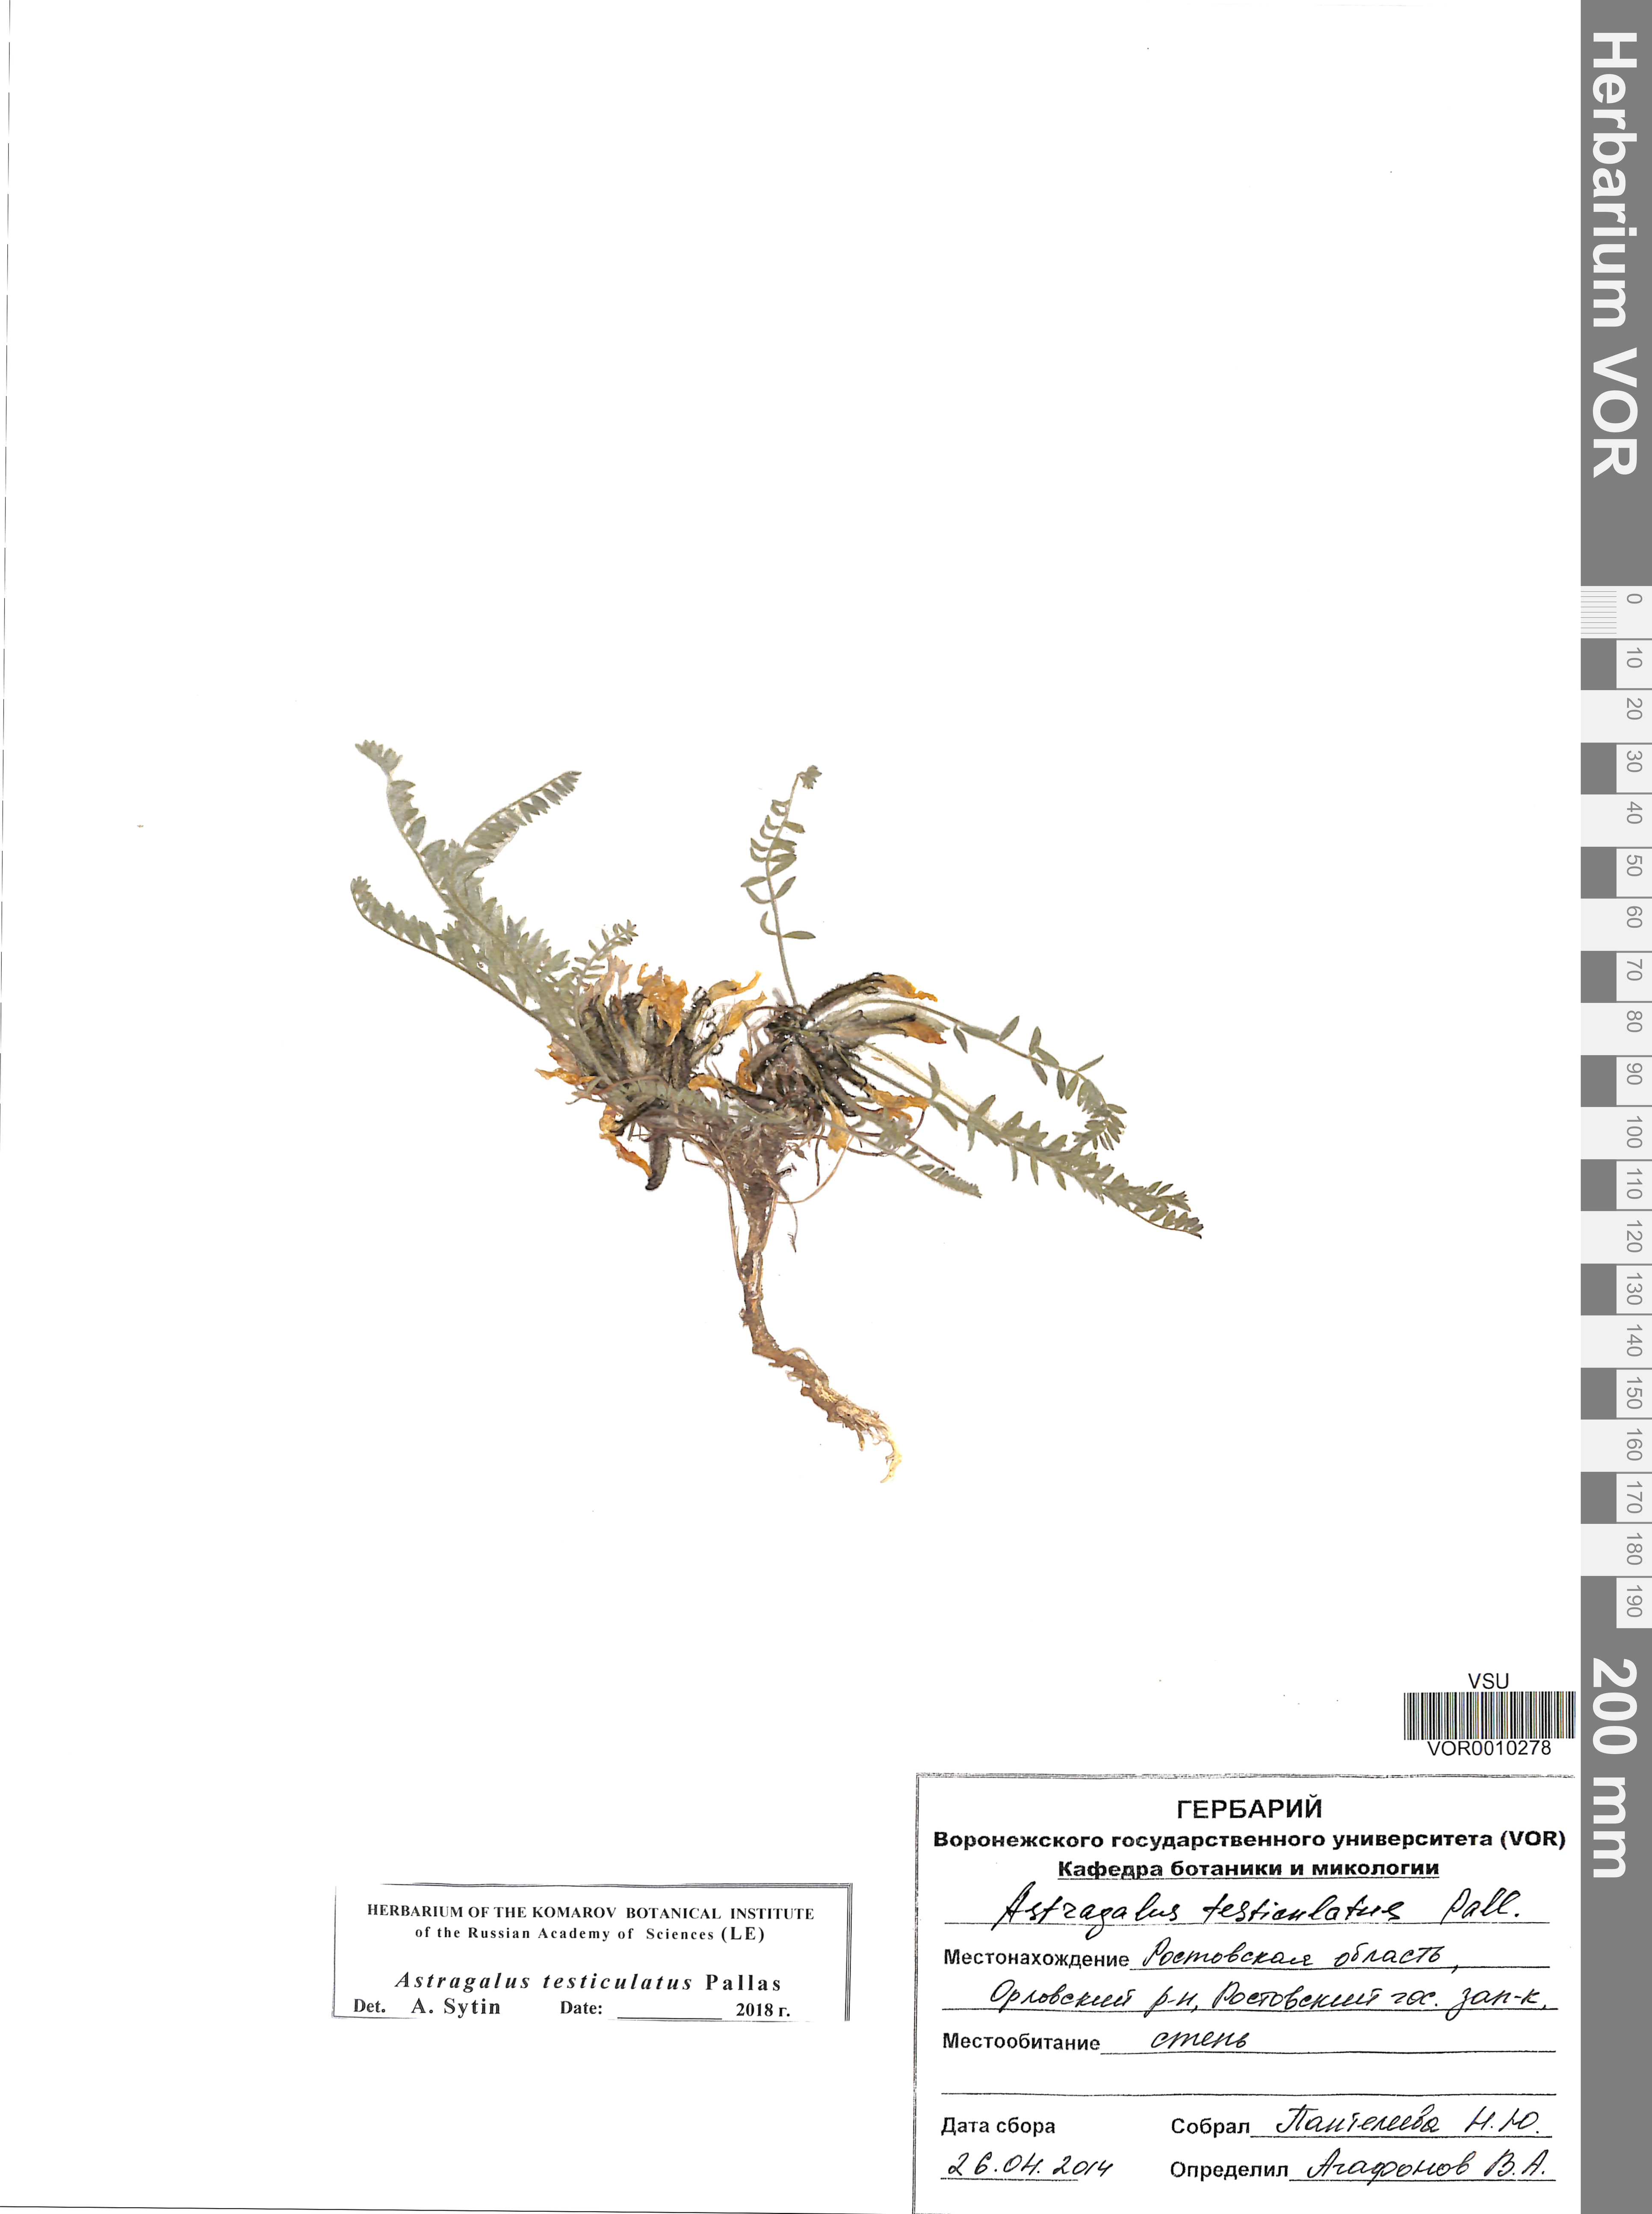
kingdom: Plantae
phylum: Tracheophyta
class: Magnoliopsida
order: Fabales
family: Fabaceae
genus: Astragalus
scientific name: Astragalus testiculatus
